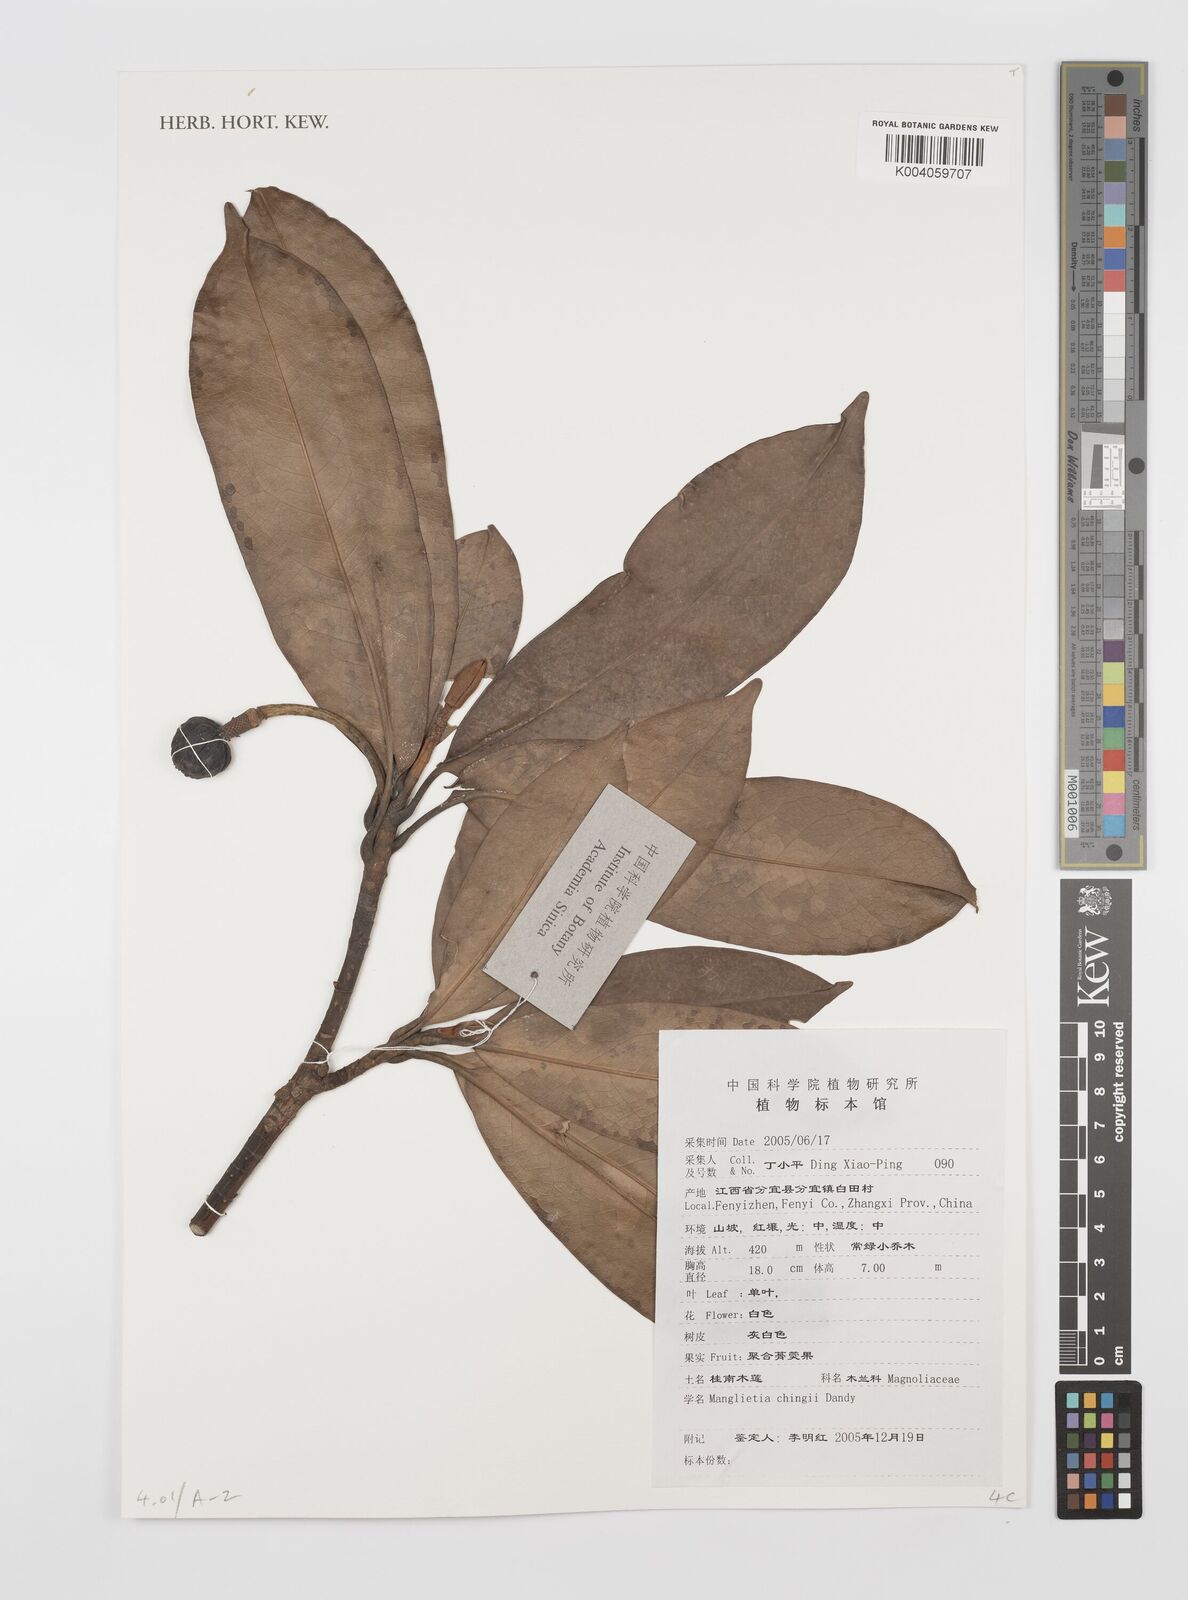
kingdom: Plantae
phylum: Tracheophyta
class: Magnoliopsida
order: Magnoliales
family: Magnoliaceae
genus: Magnolia
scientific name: Magnolia
